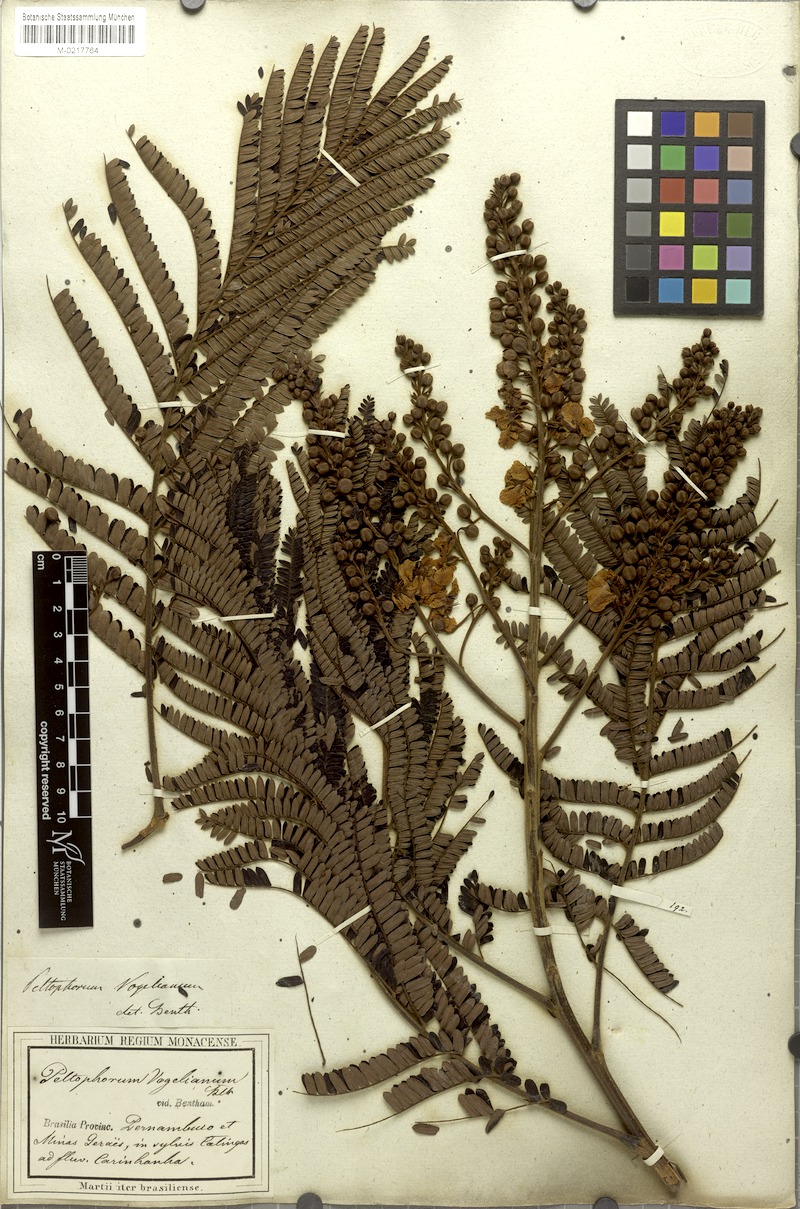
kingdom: Plantae
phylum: Tracheophyta
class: Magnoliopsida
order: Fabales
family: Fabaceae
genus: Peltophorum
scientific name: Peltophorum dubium
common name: Horsebush
